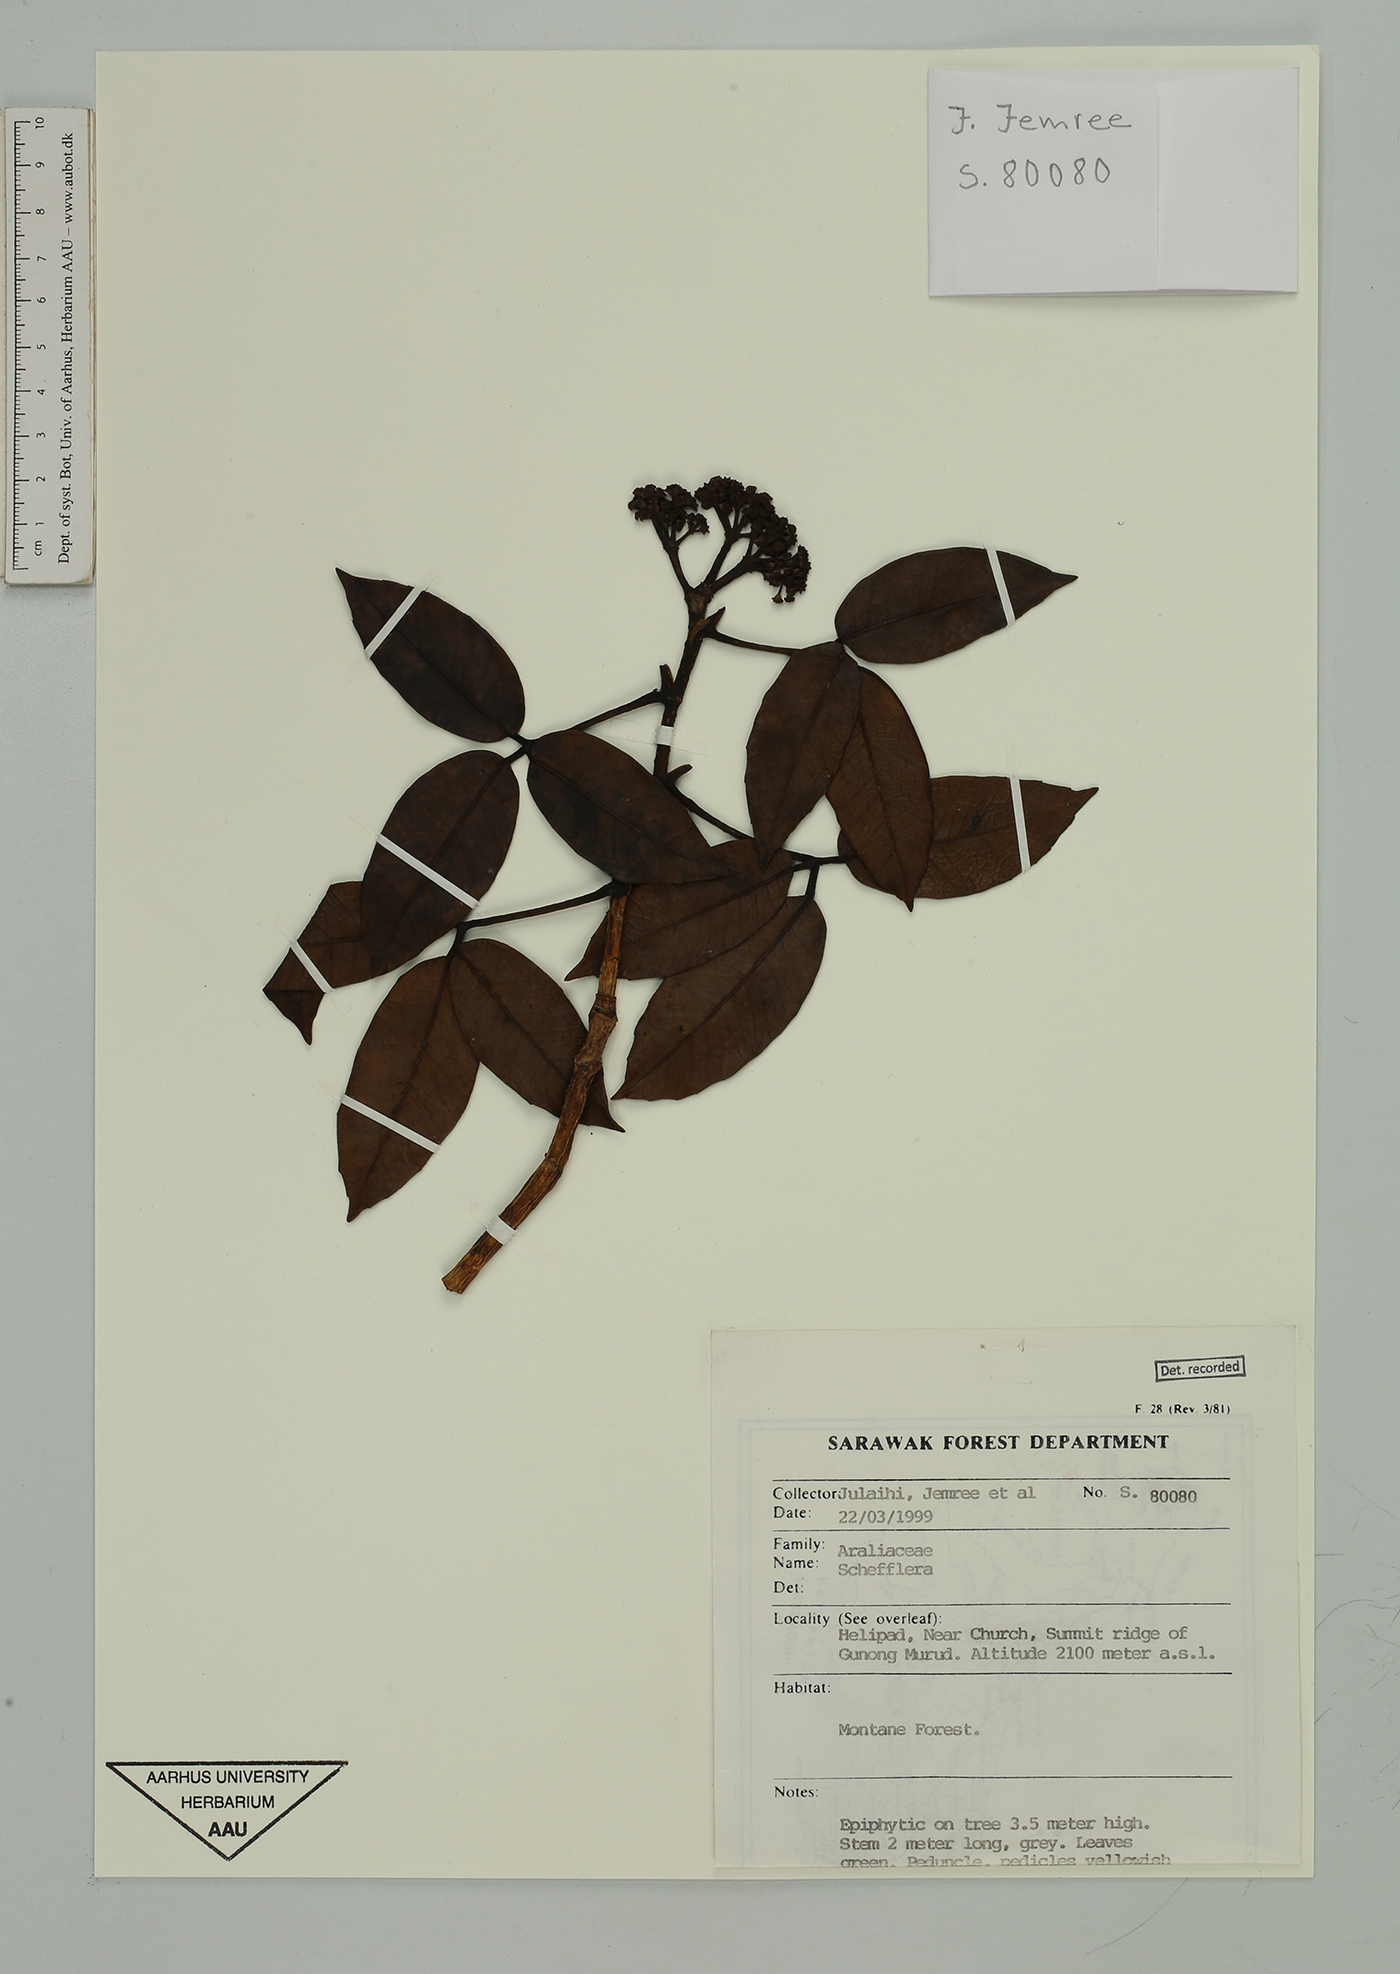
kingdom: Plantae
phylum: Tracheophyta
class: Magnoliopsida
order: Apiales
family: Araliaceae
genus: Schefflera
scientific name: Schefflera
